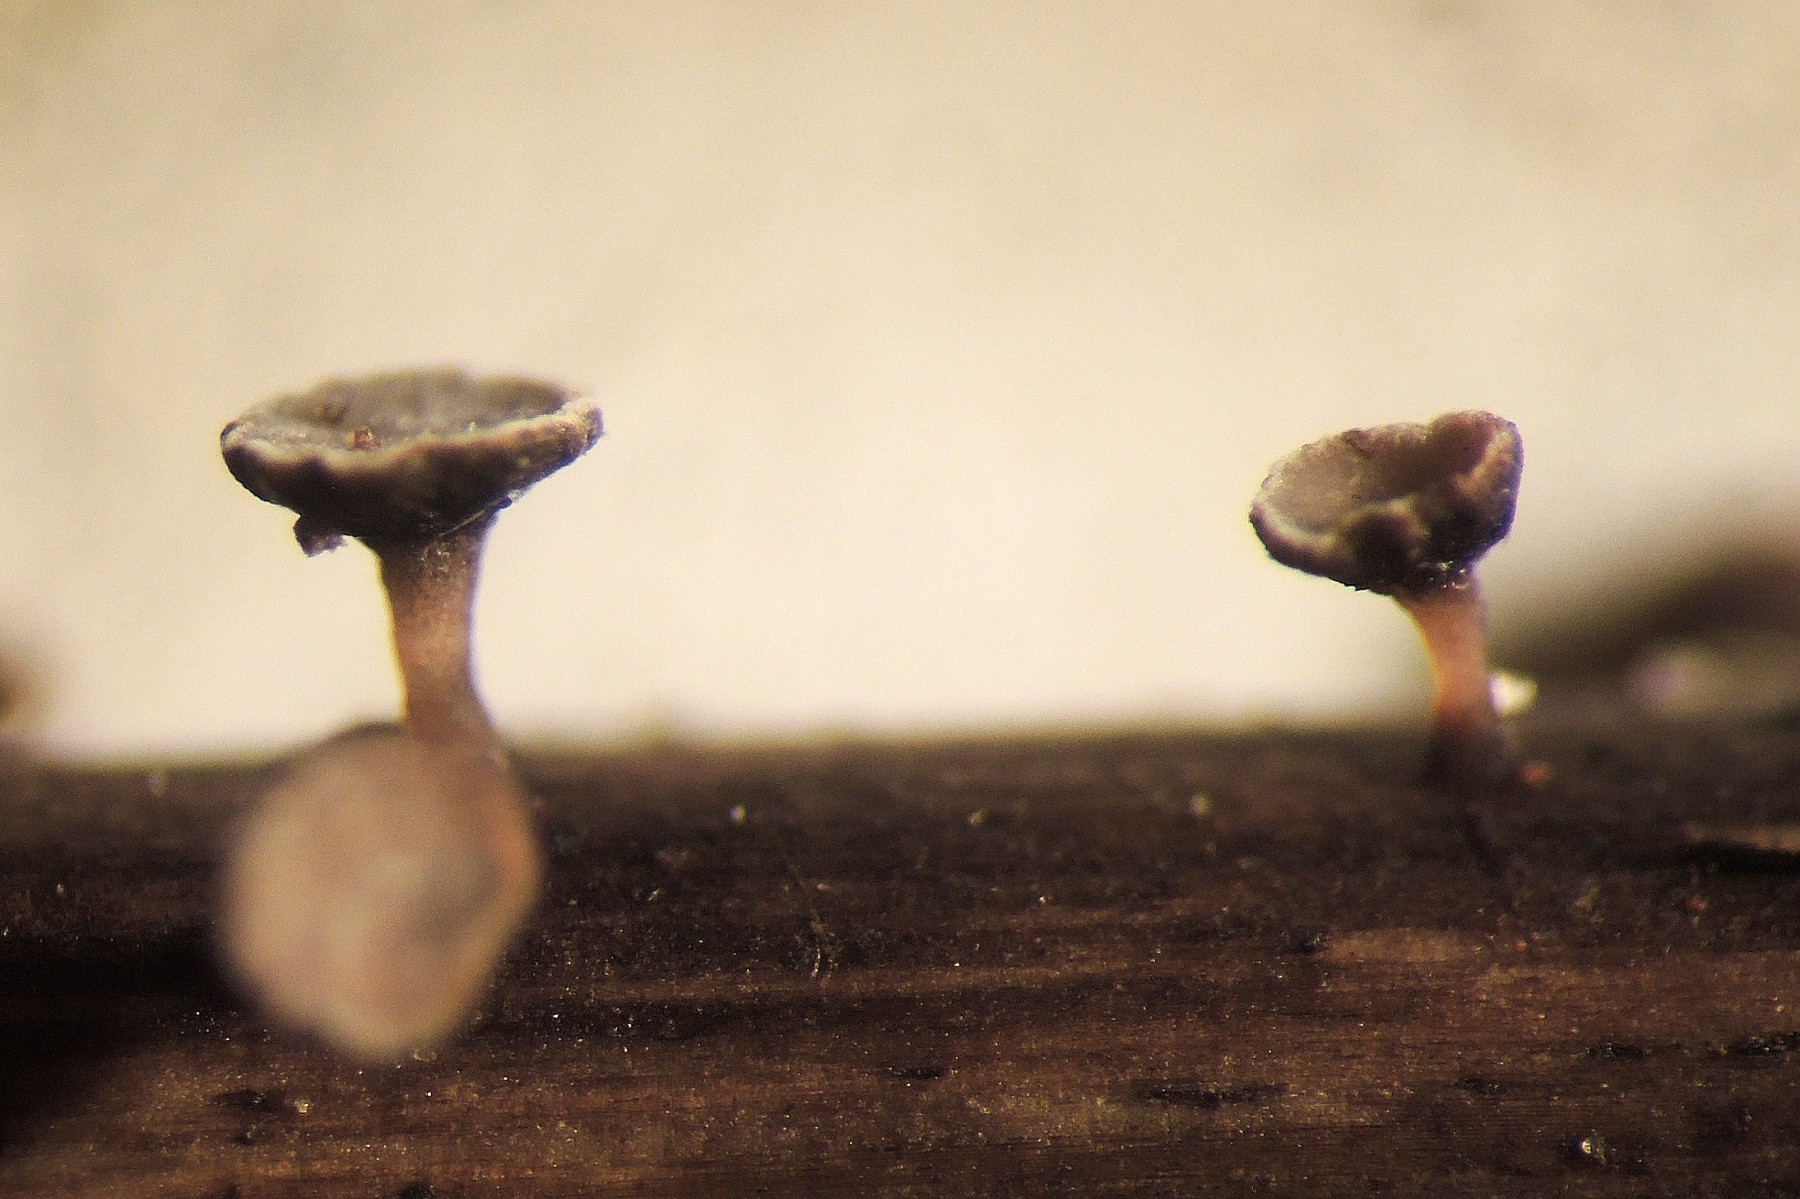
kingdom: Fungi
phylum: Ascomycota
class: Leotiomycetes
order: Helotiales
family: Helotiaceae
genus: Crocicreas
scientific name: Crocicreas furvum
